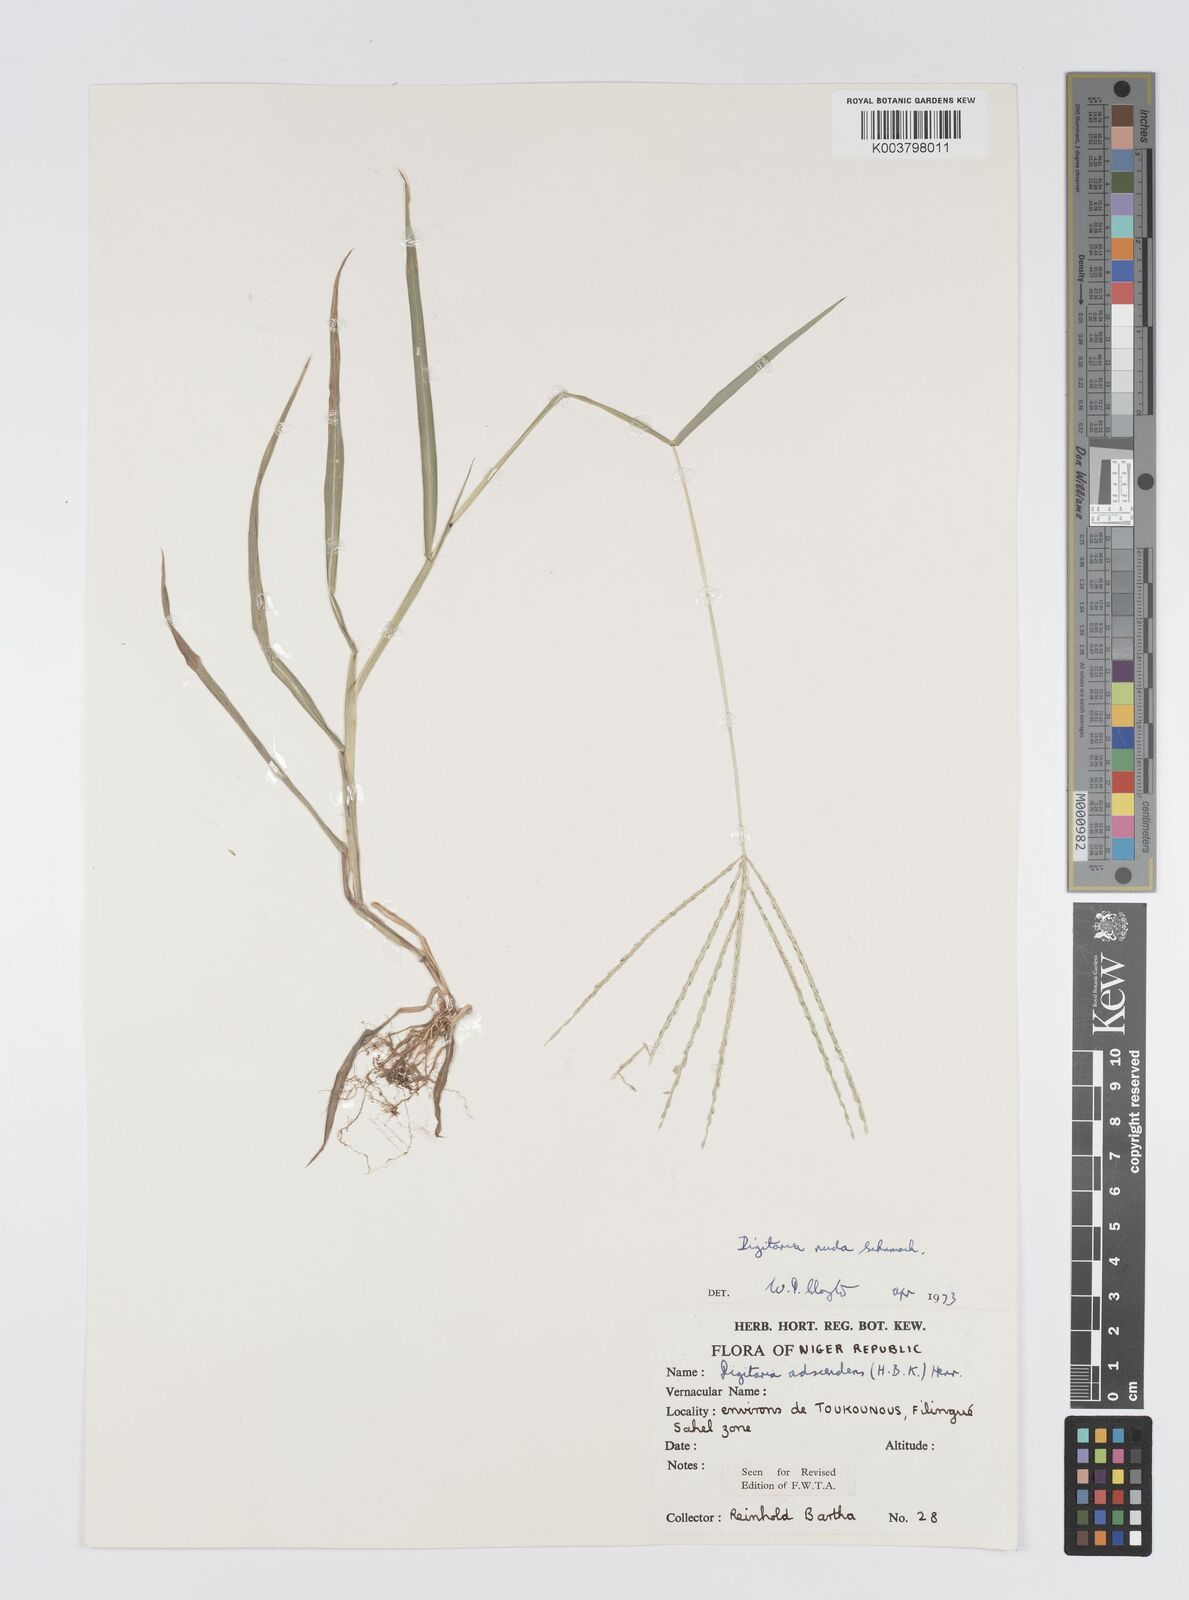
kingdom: Plantae
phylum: Tracheophyta
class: Liliopsida
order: Poales
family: Poaceae
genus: Digitaria
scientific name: Digitaria nuda
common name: Naked crabgrass
